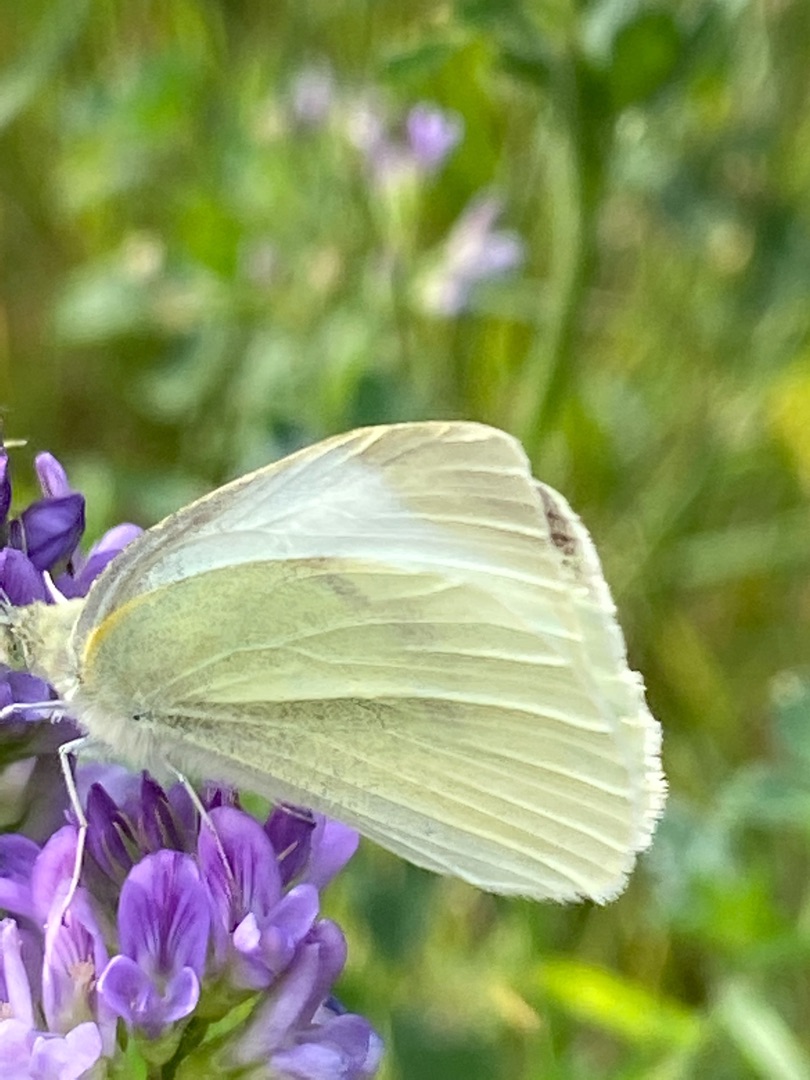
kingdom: Animalia
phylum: Arthropoda
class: Insecta
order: Lepidoptera
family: Pieridae
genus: Pieris
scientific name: Pieris rapae
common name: Lille kålsommerfugl
